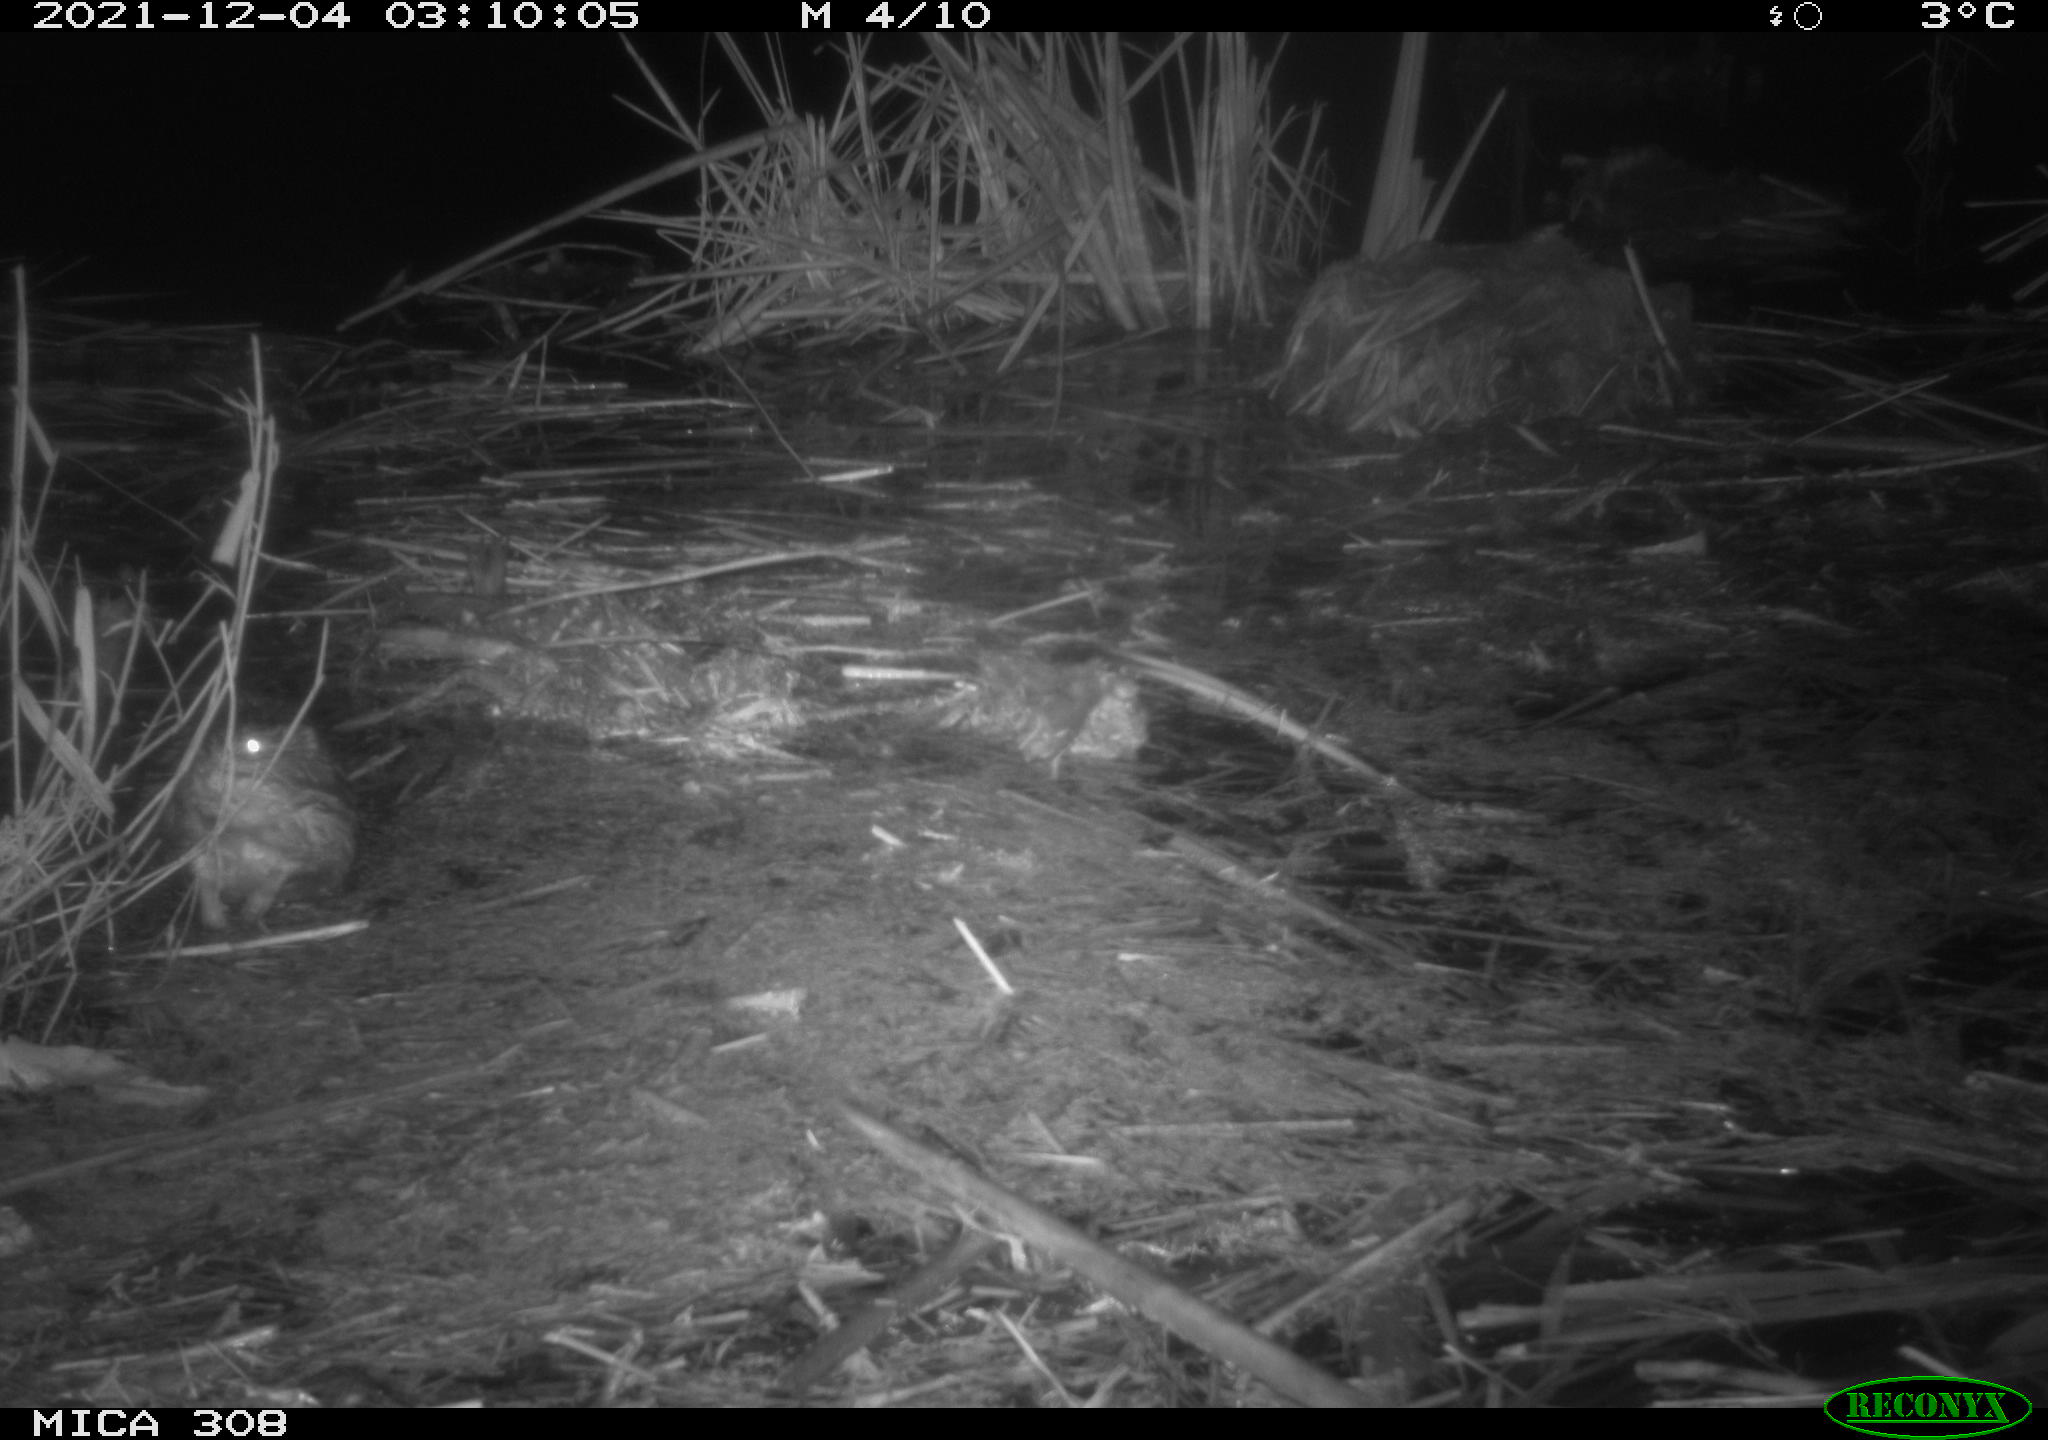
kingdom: Animalia
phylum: Chordata
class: Mammalia
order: Rodentia
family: Cricetidae
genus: Ondatra
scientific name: Ondatra zibethicus
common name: Muskrat
